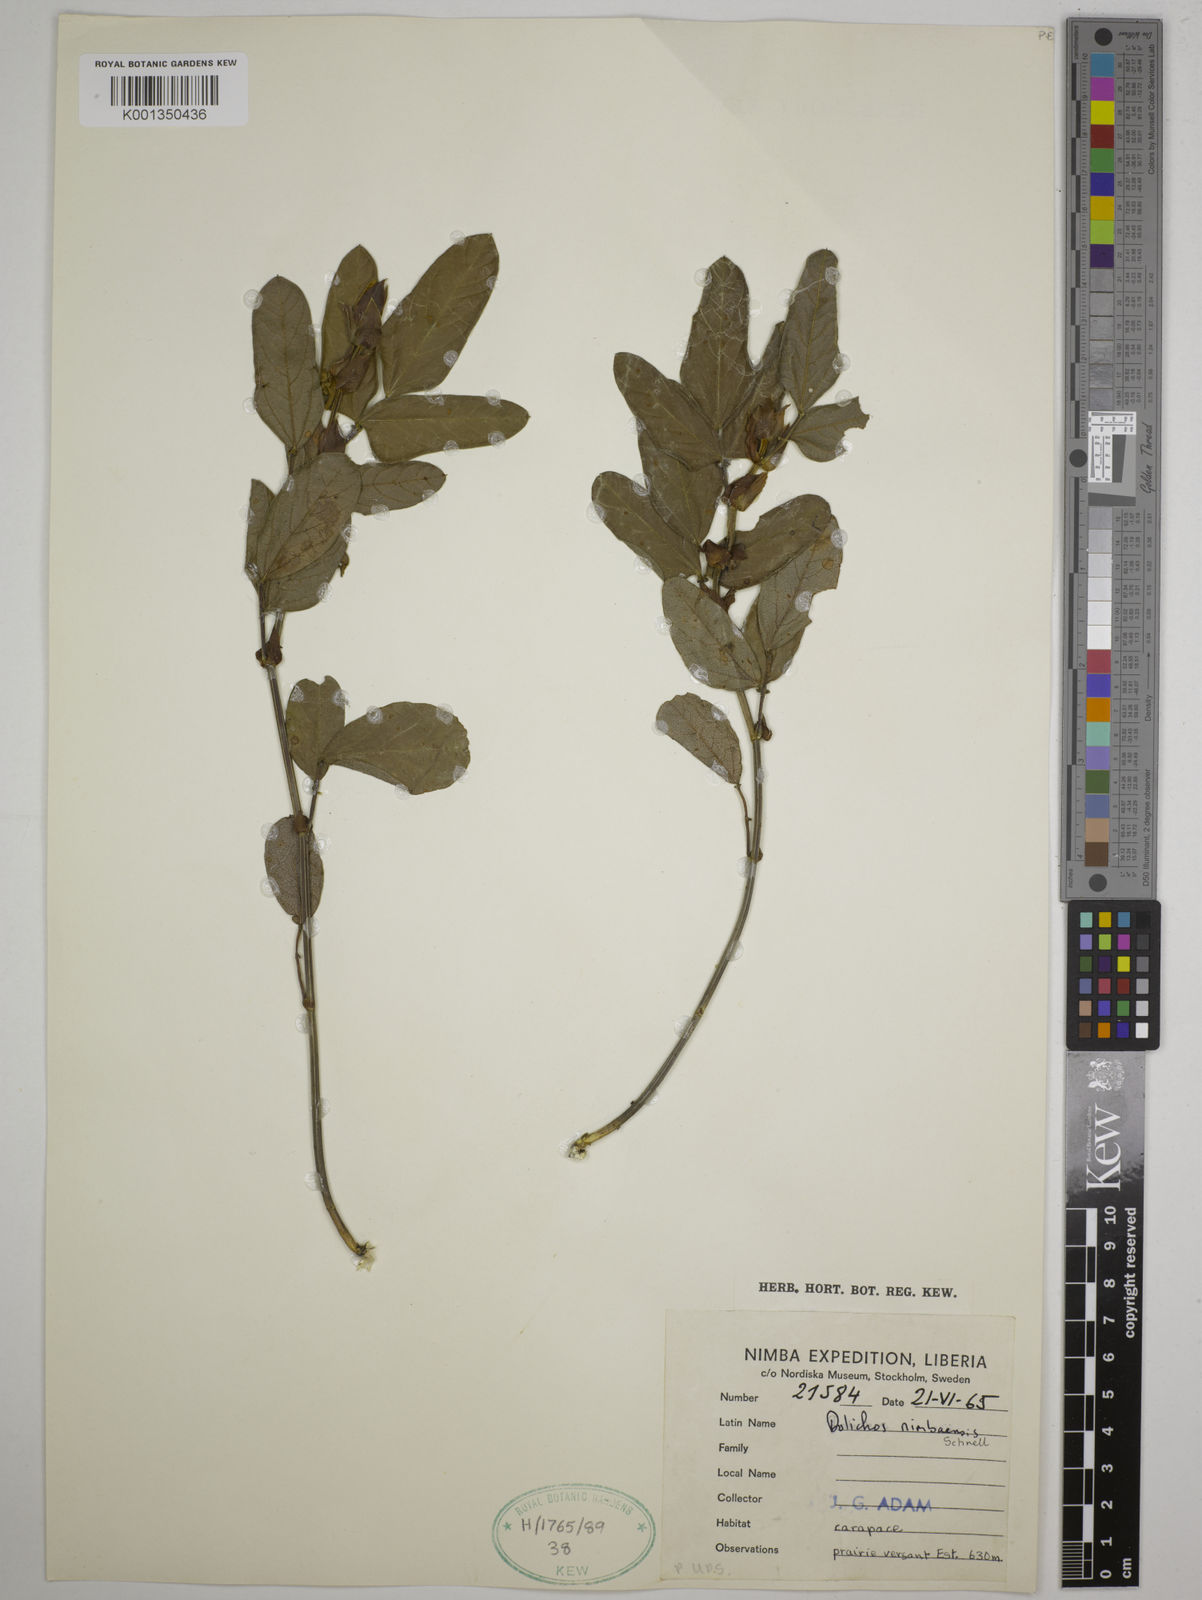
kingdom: Plantae
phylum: Tracheophyta
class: Magnoliopsida
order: Fabales
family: Fabaceae
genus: Dolichos
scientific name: Dolichos nimbaensis
